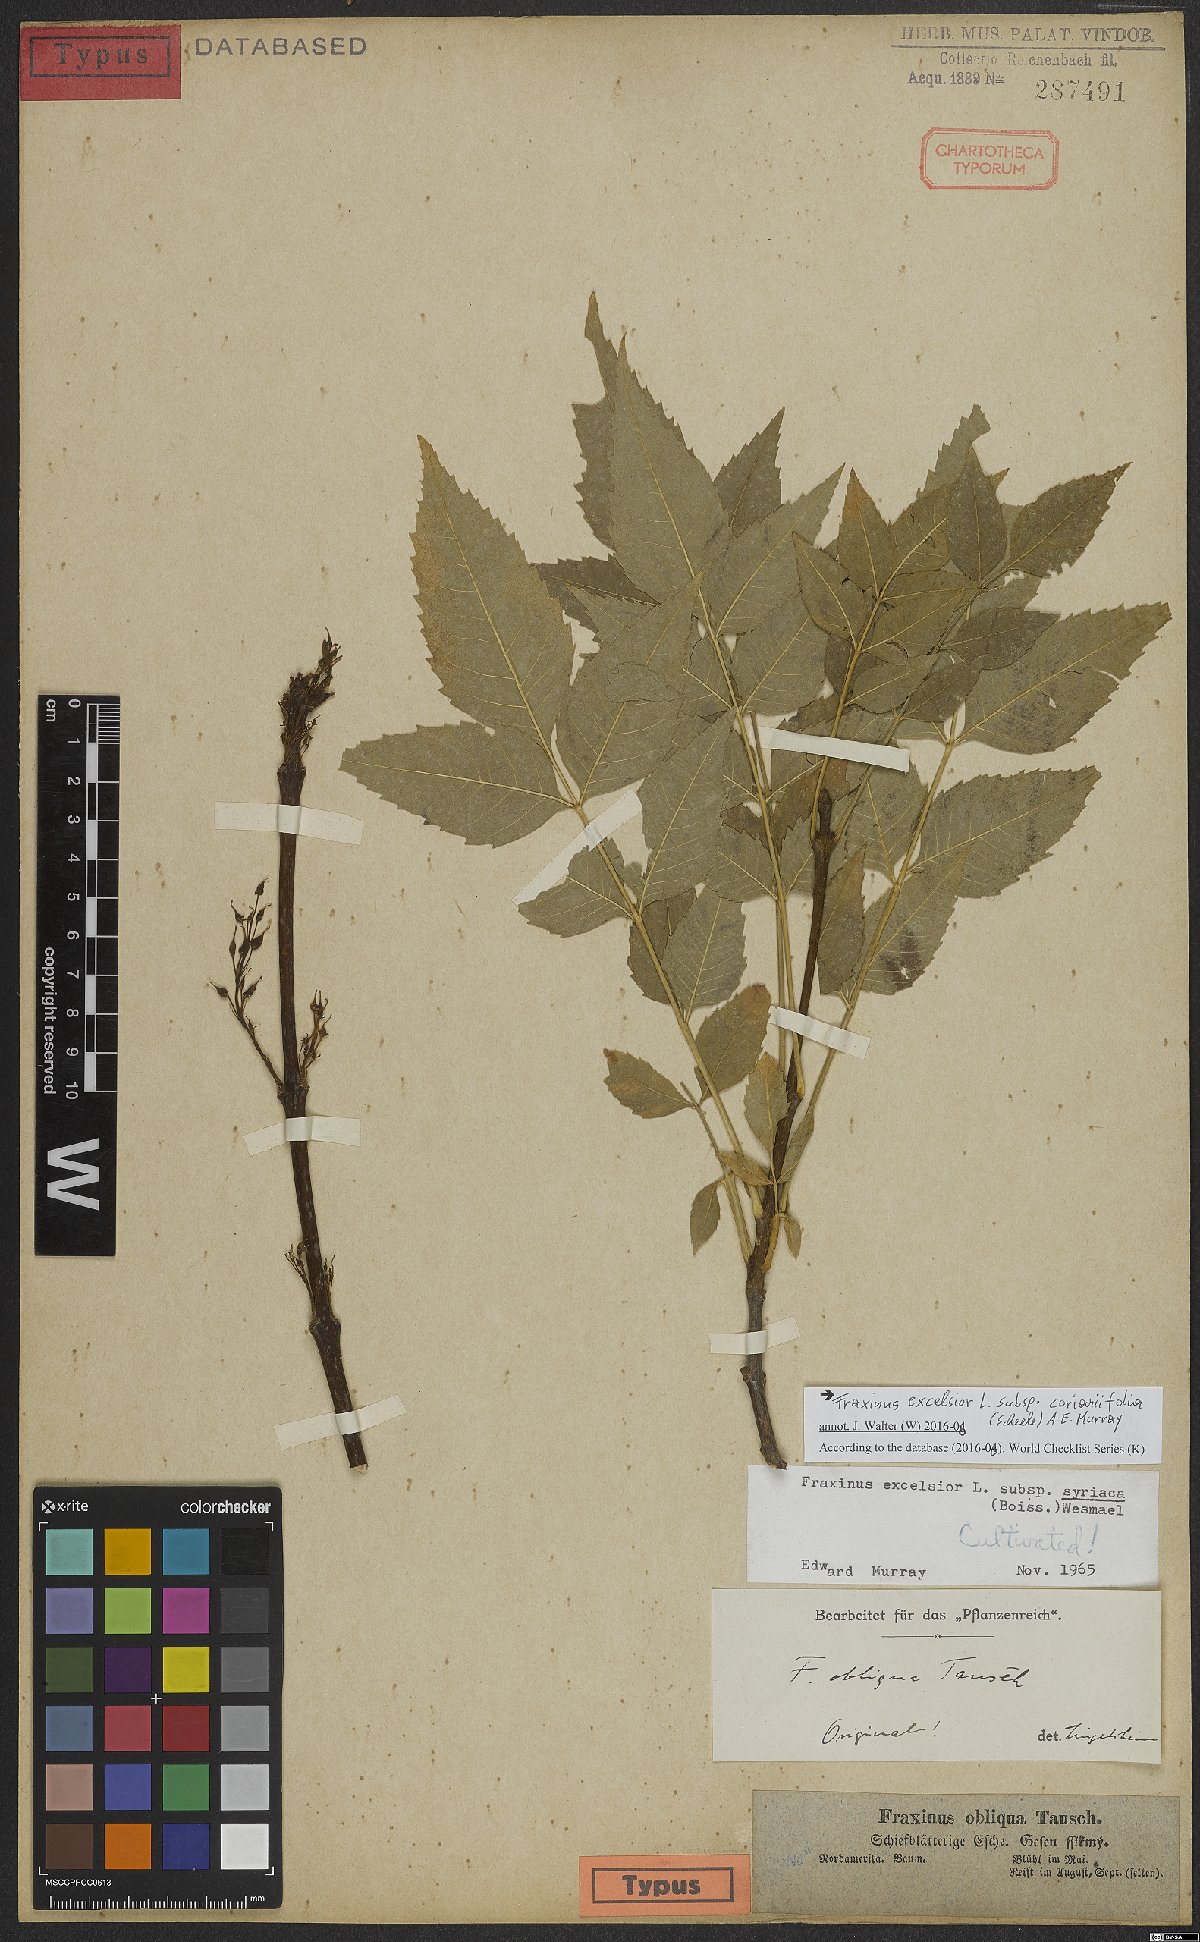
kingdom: Plantae
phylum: Tracheophyta
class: Magnoliopsida
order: Lamiales
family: Oleaceae
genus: Fraxinus
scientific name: Fraxinus excelsior
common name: European ash
